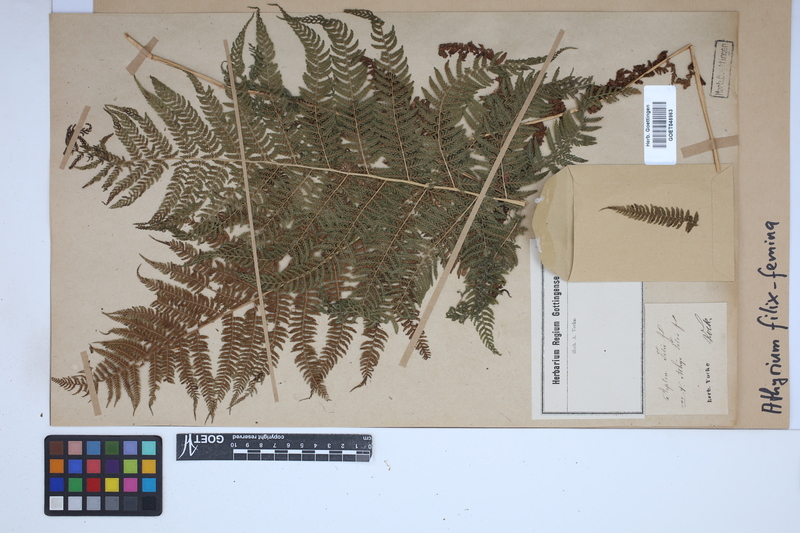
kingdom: Plantae
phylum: Tracheophyta
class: Polypodiopsida
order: Polypodiales
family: Athyriaceae
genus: Athyrium
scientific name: Athyrium filix-femina
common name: Lady fern
